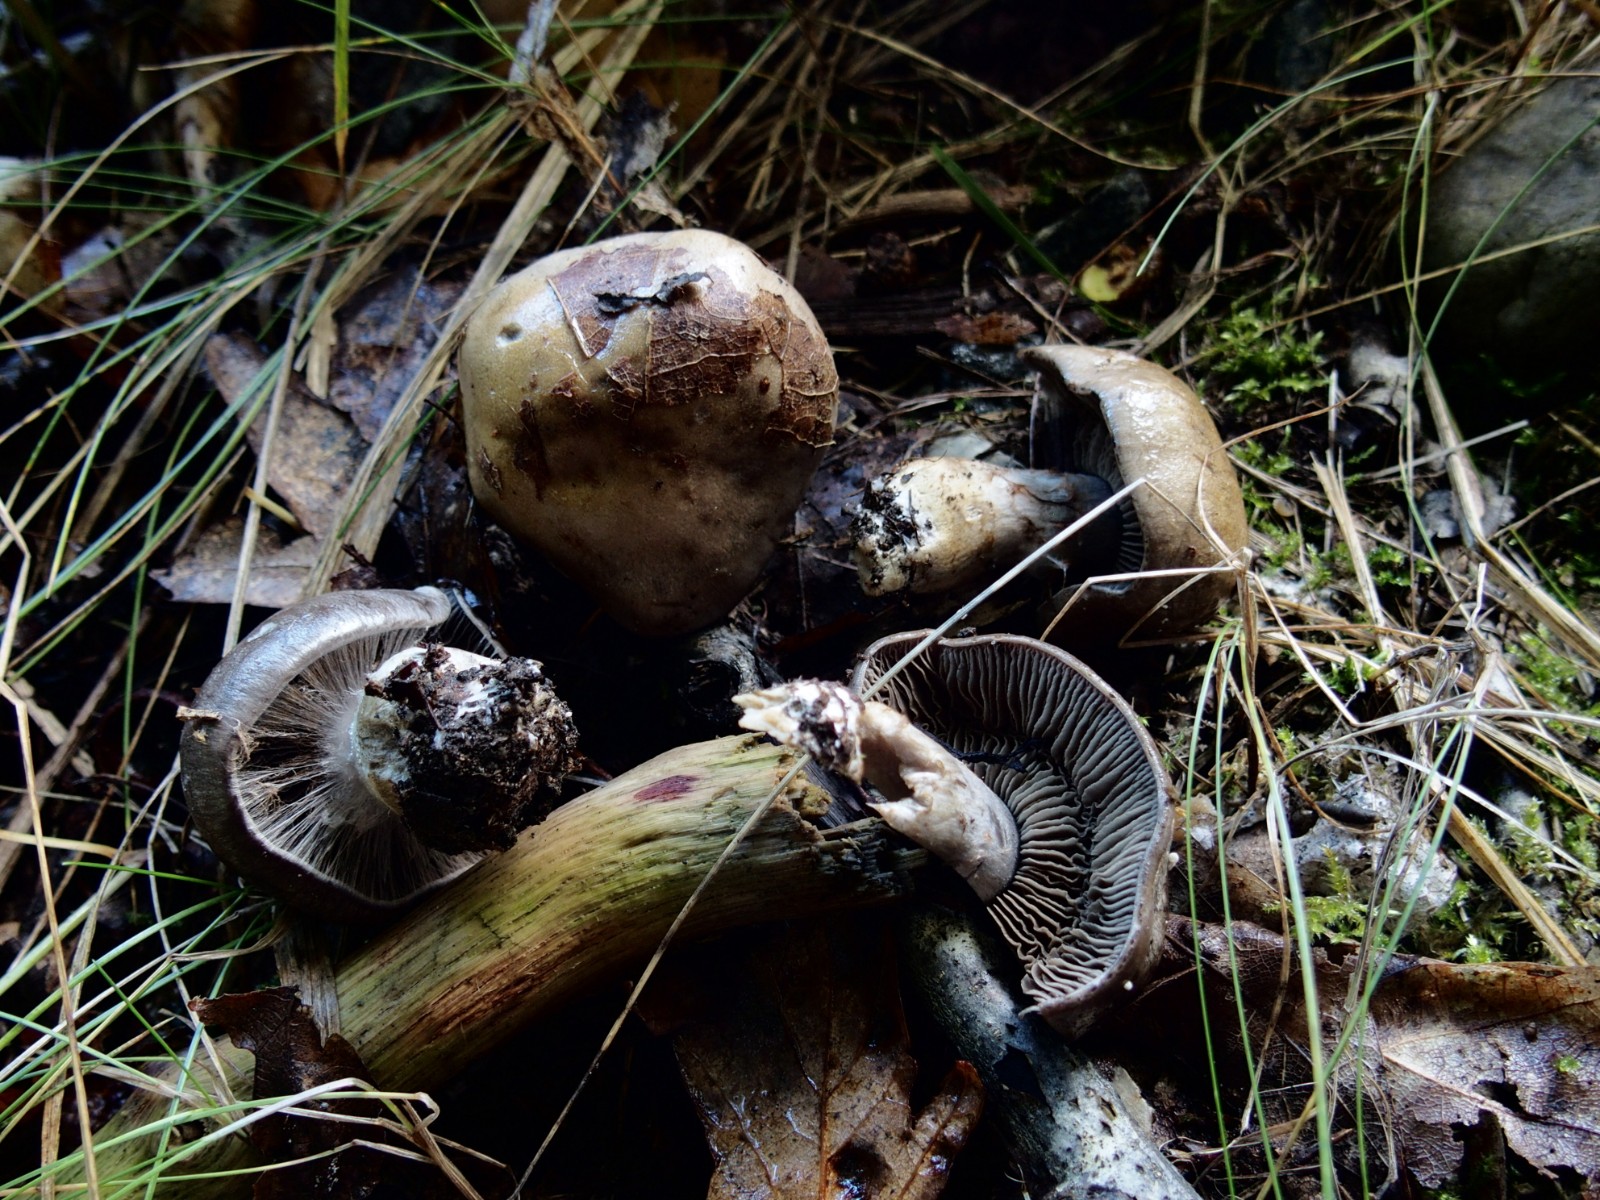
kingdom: Fungi
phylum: Basidiomycota
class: Agaricomycetes
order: Agaricales
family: Cortinariaceae
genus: Cortinarius
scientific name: Cortinarius
